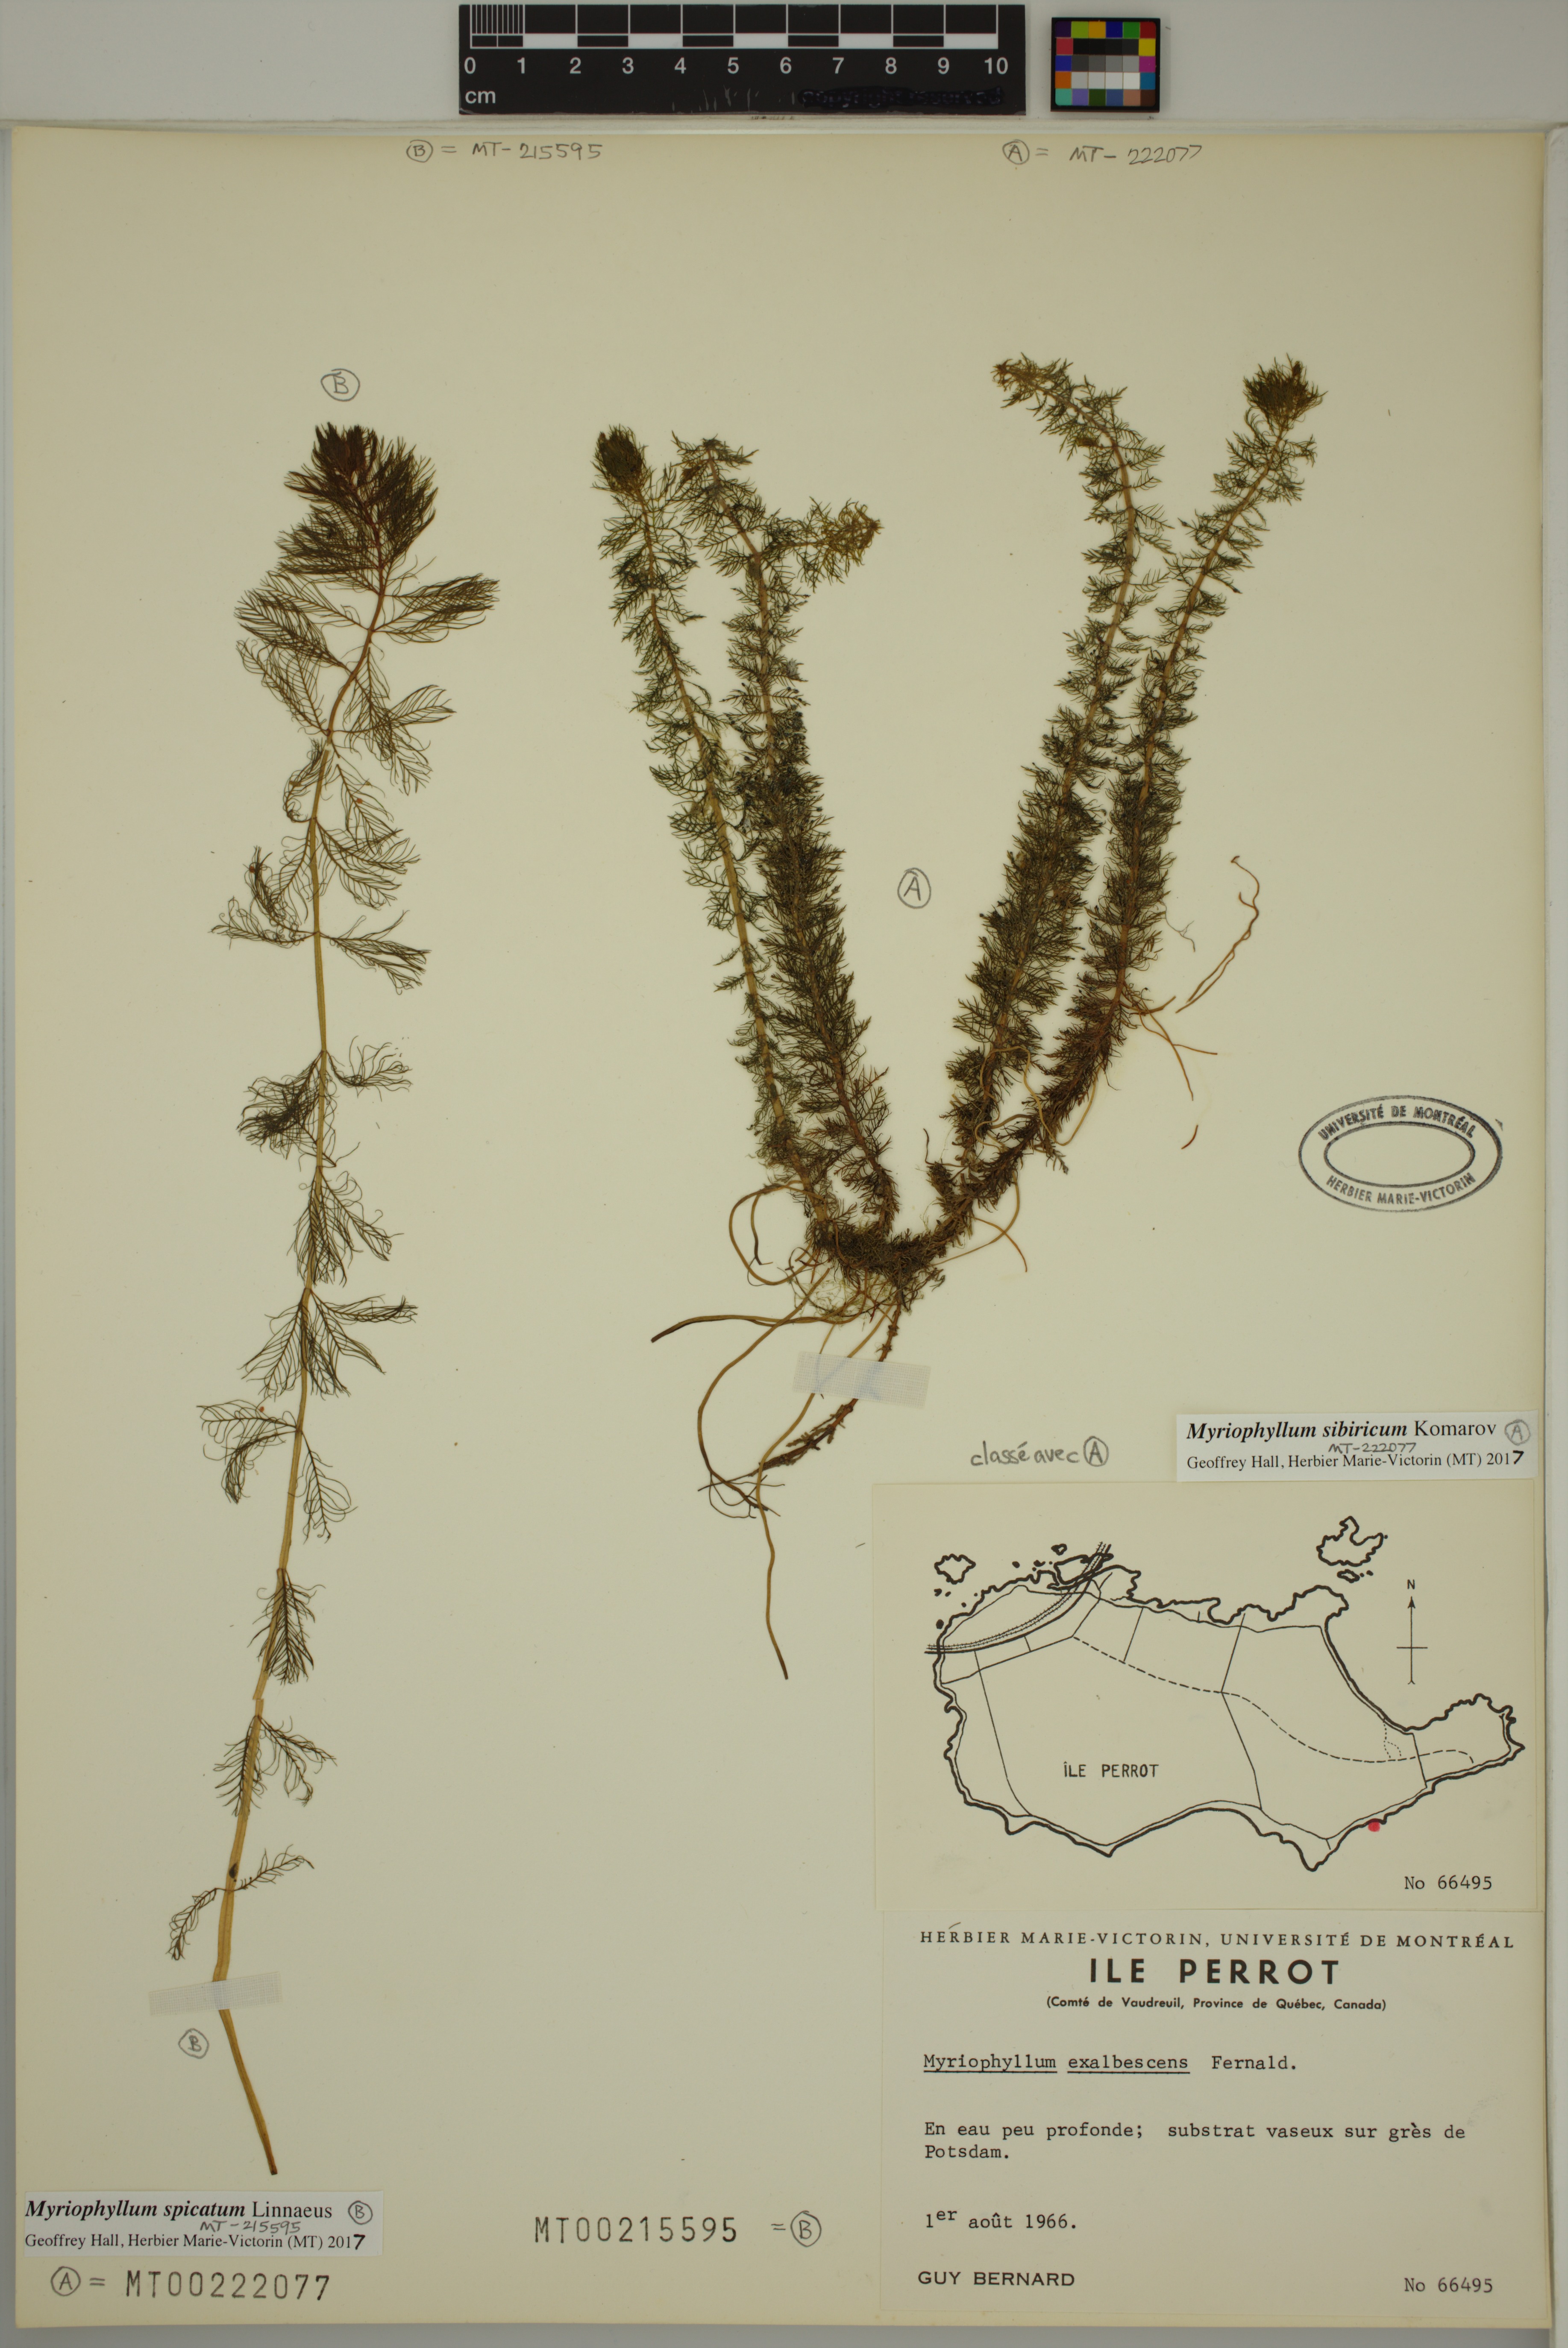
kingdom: Plantae
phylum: Tracheophyta
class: Magnoliopsida
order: Saxifragales
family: Haloragaceae
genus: Myriophyllum
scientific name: Myriophyllum sibiricum
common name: Siberian water-milfoil
